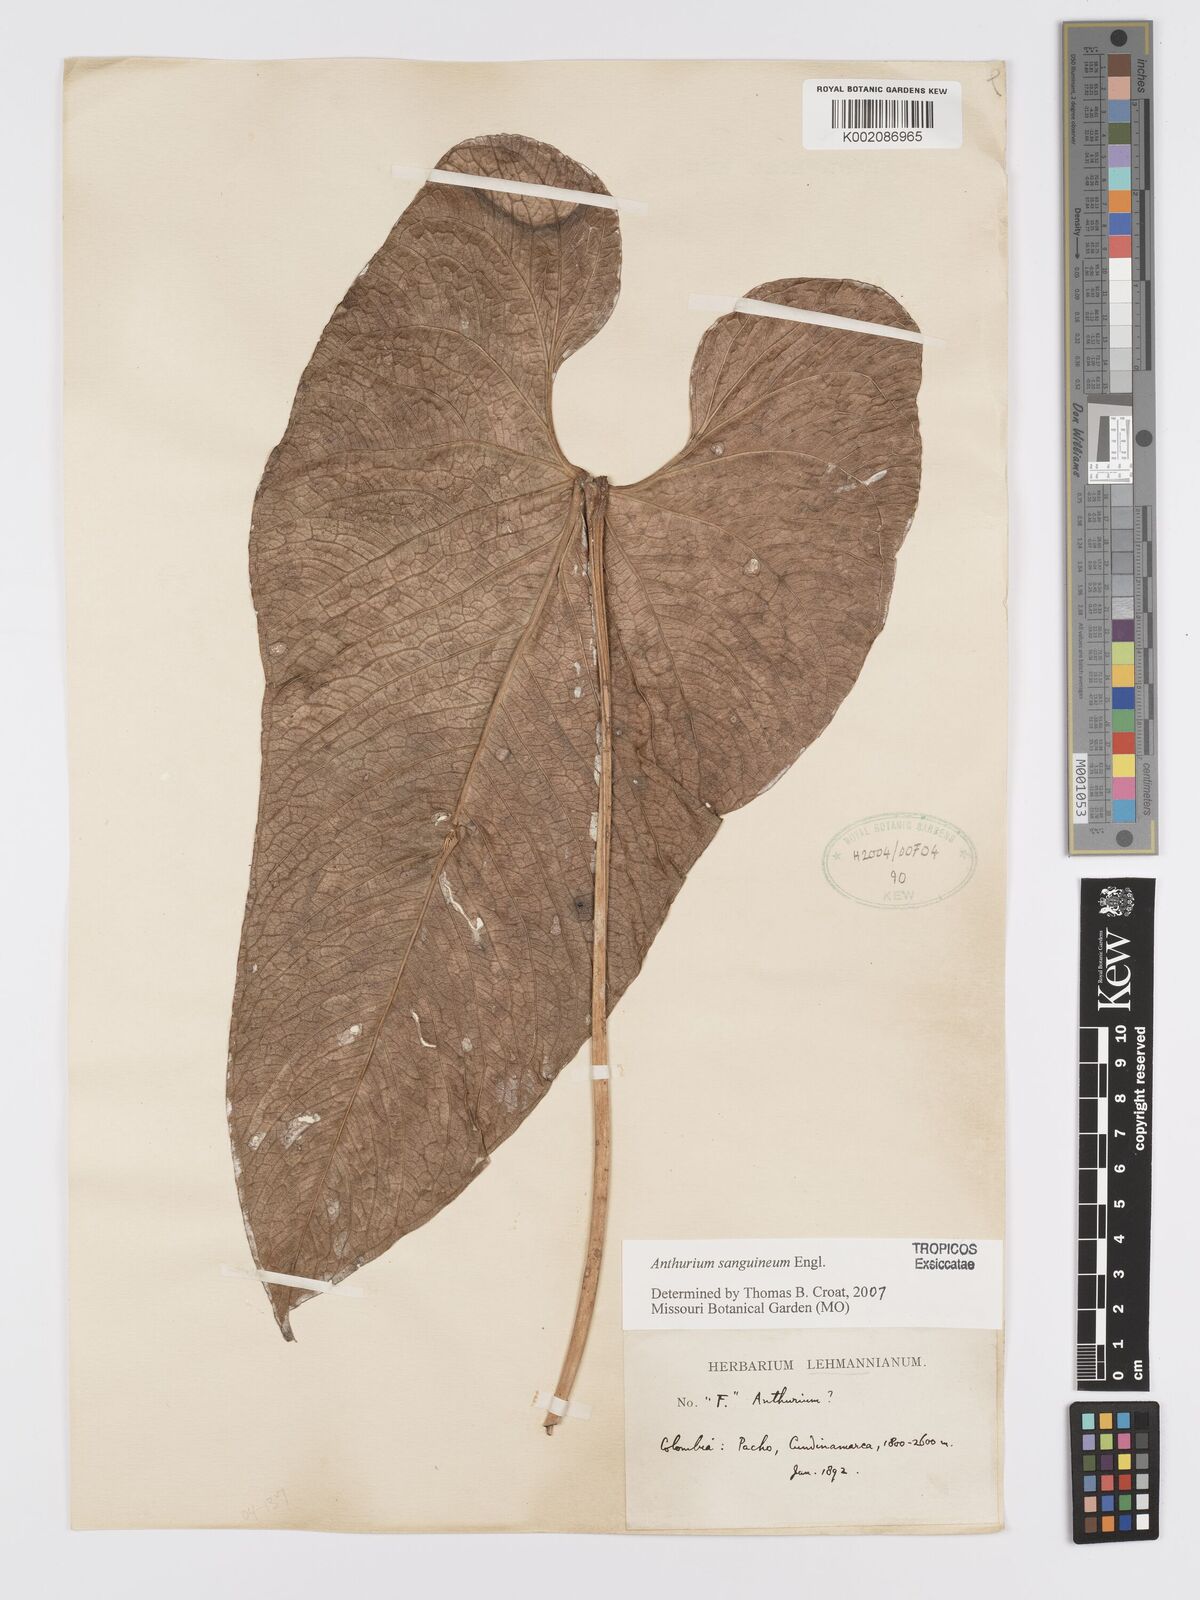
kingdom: Plantae
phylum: Tracheophyta
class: Liliopsida
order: Alismatales
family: Araceae
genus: Anthurium
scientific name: Anthurium sanguineum
